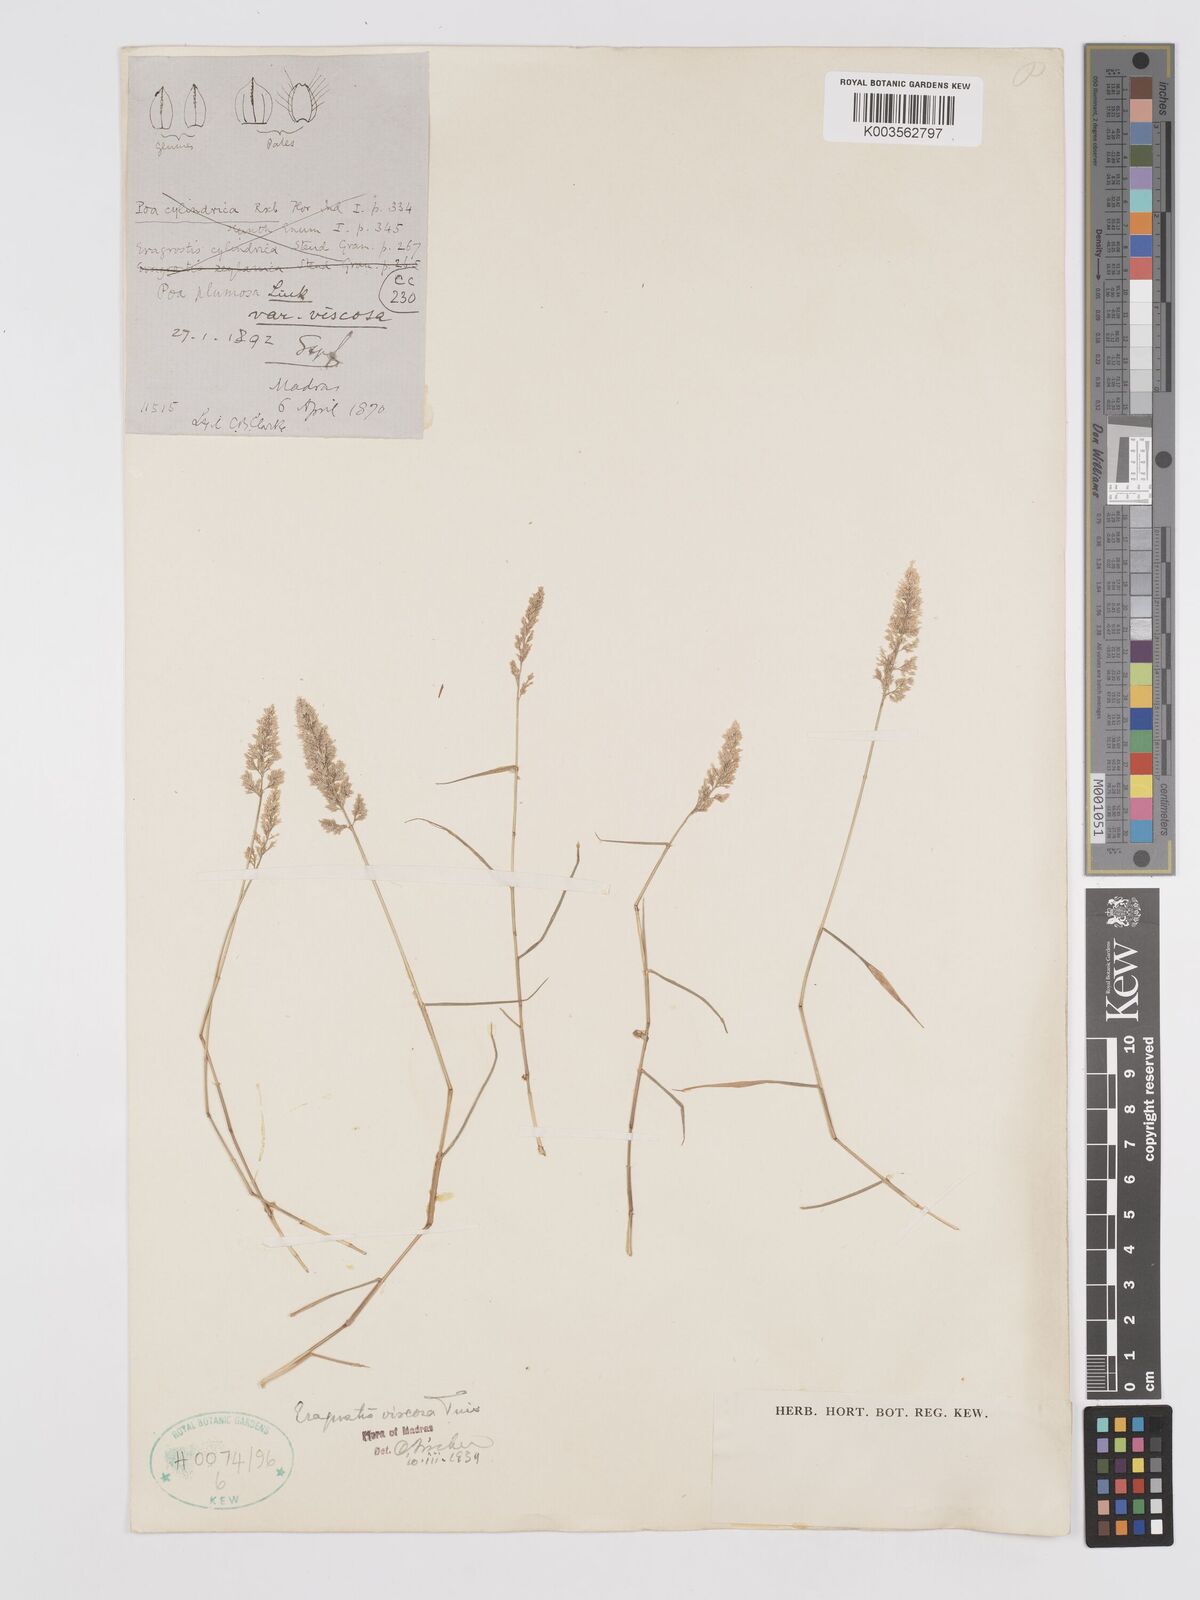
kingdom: Plantae
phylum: Tracheophyta
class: Liliopsida
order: Poales
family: Poaceae
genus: Eragrostis
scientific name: Eragrostis viscosa
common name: Sticky love grass
